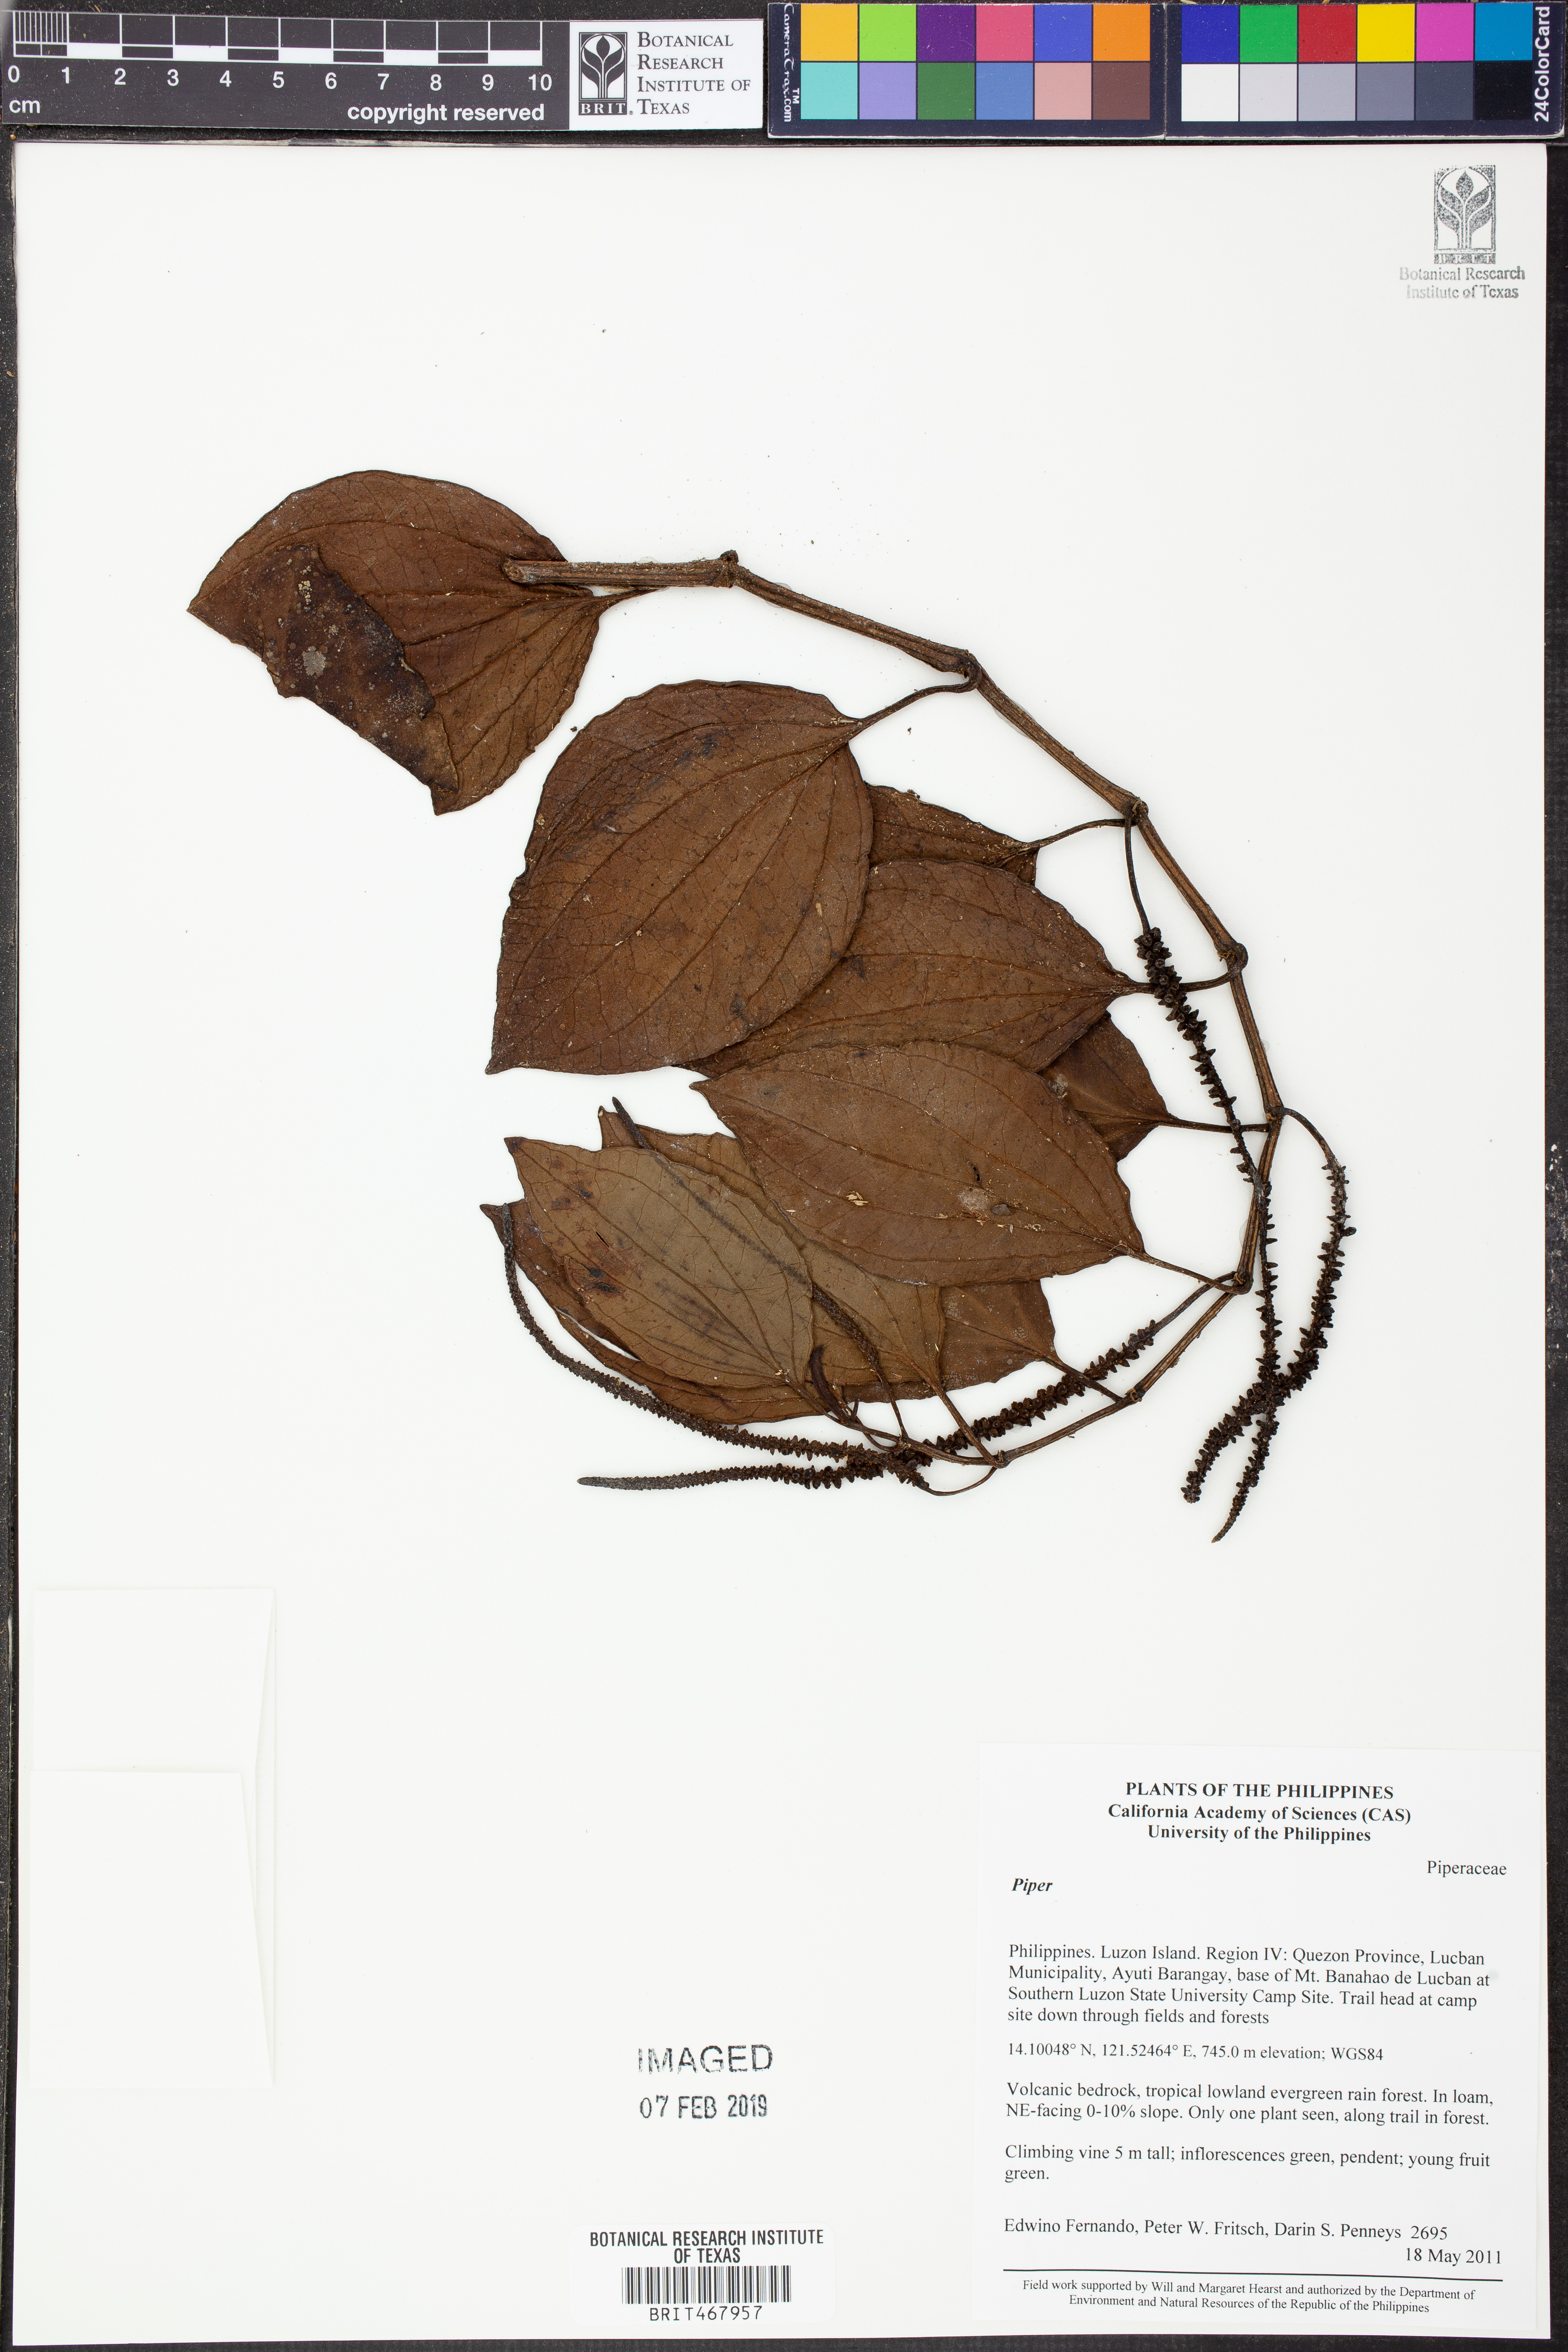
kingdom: Plantae
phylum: Tracheophyta
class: Magnoliopsida
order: Piperales
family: Piperaceae
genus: Piper
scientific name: Piper
